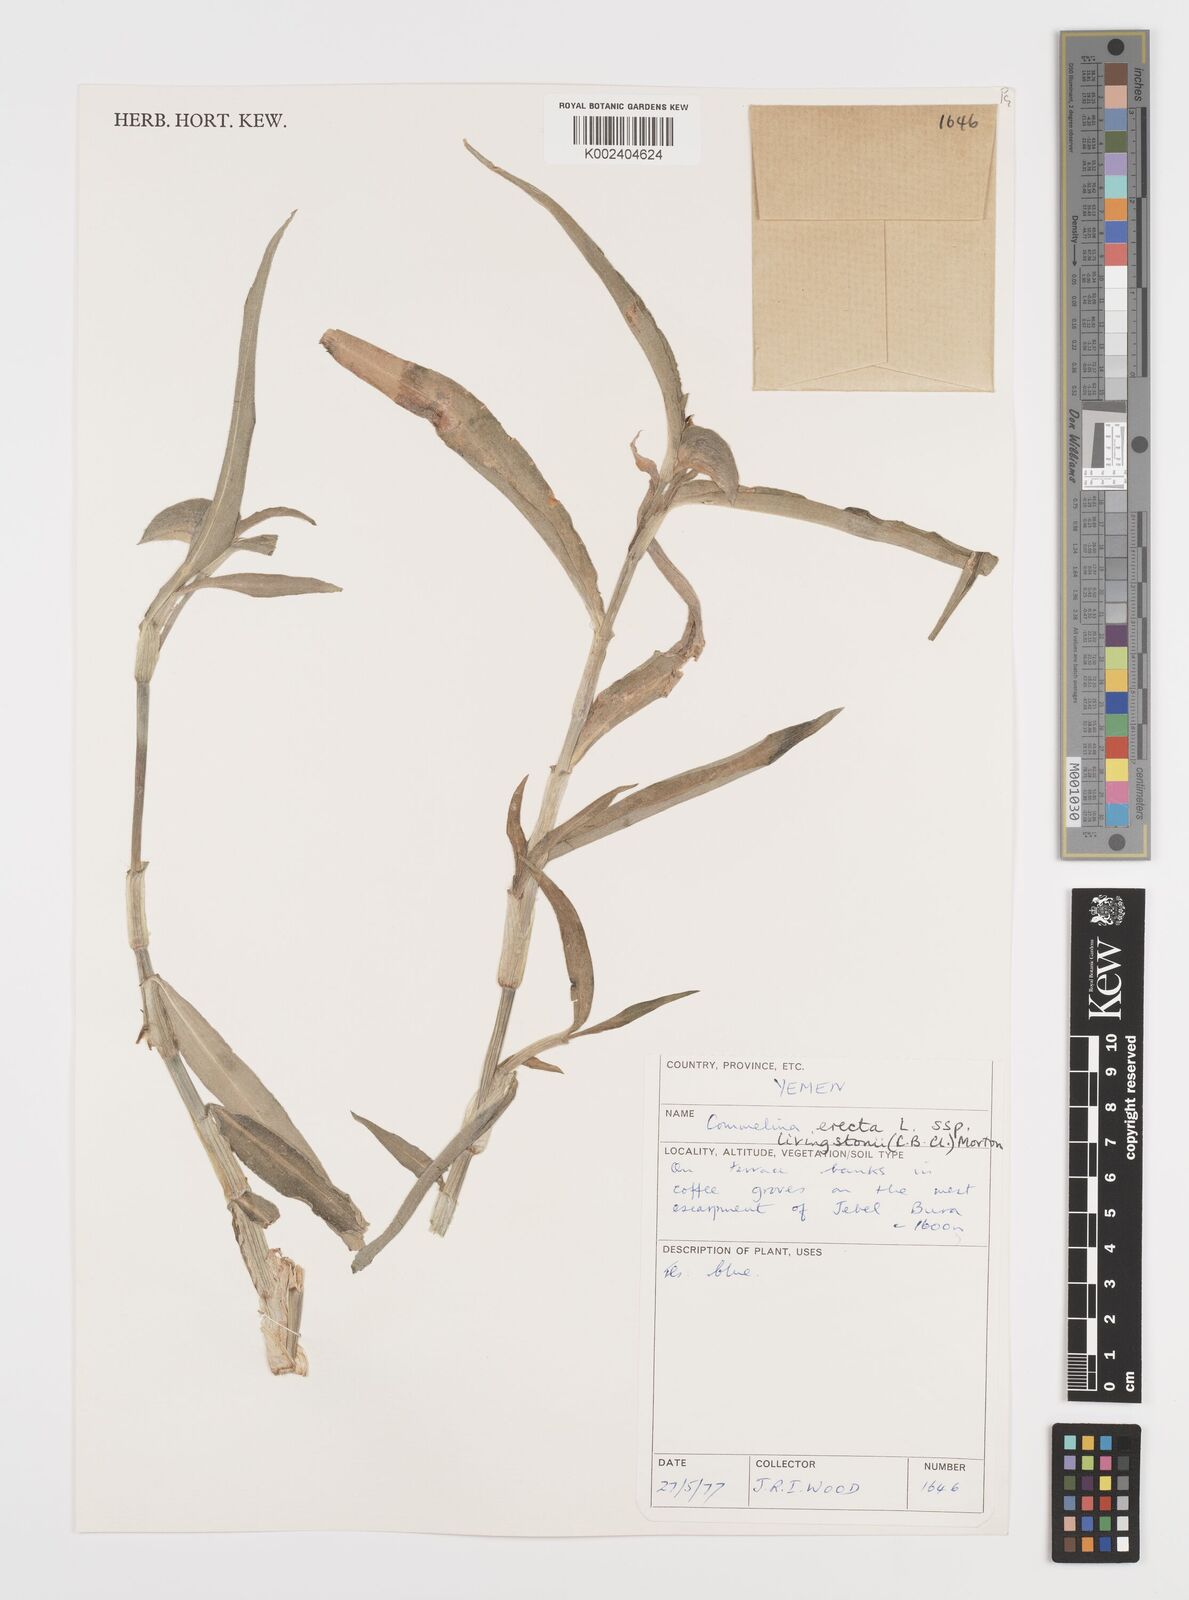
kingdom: Plantae
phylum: Tracheophyta
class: Liliopsida
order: Commelinales
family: Commelinaceae
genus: Commelina
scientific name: Commelina erecta
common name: Blousel blommetjie
